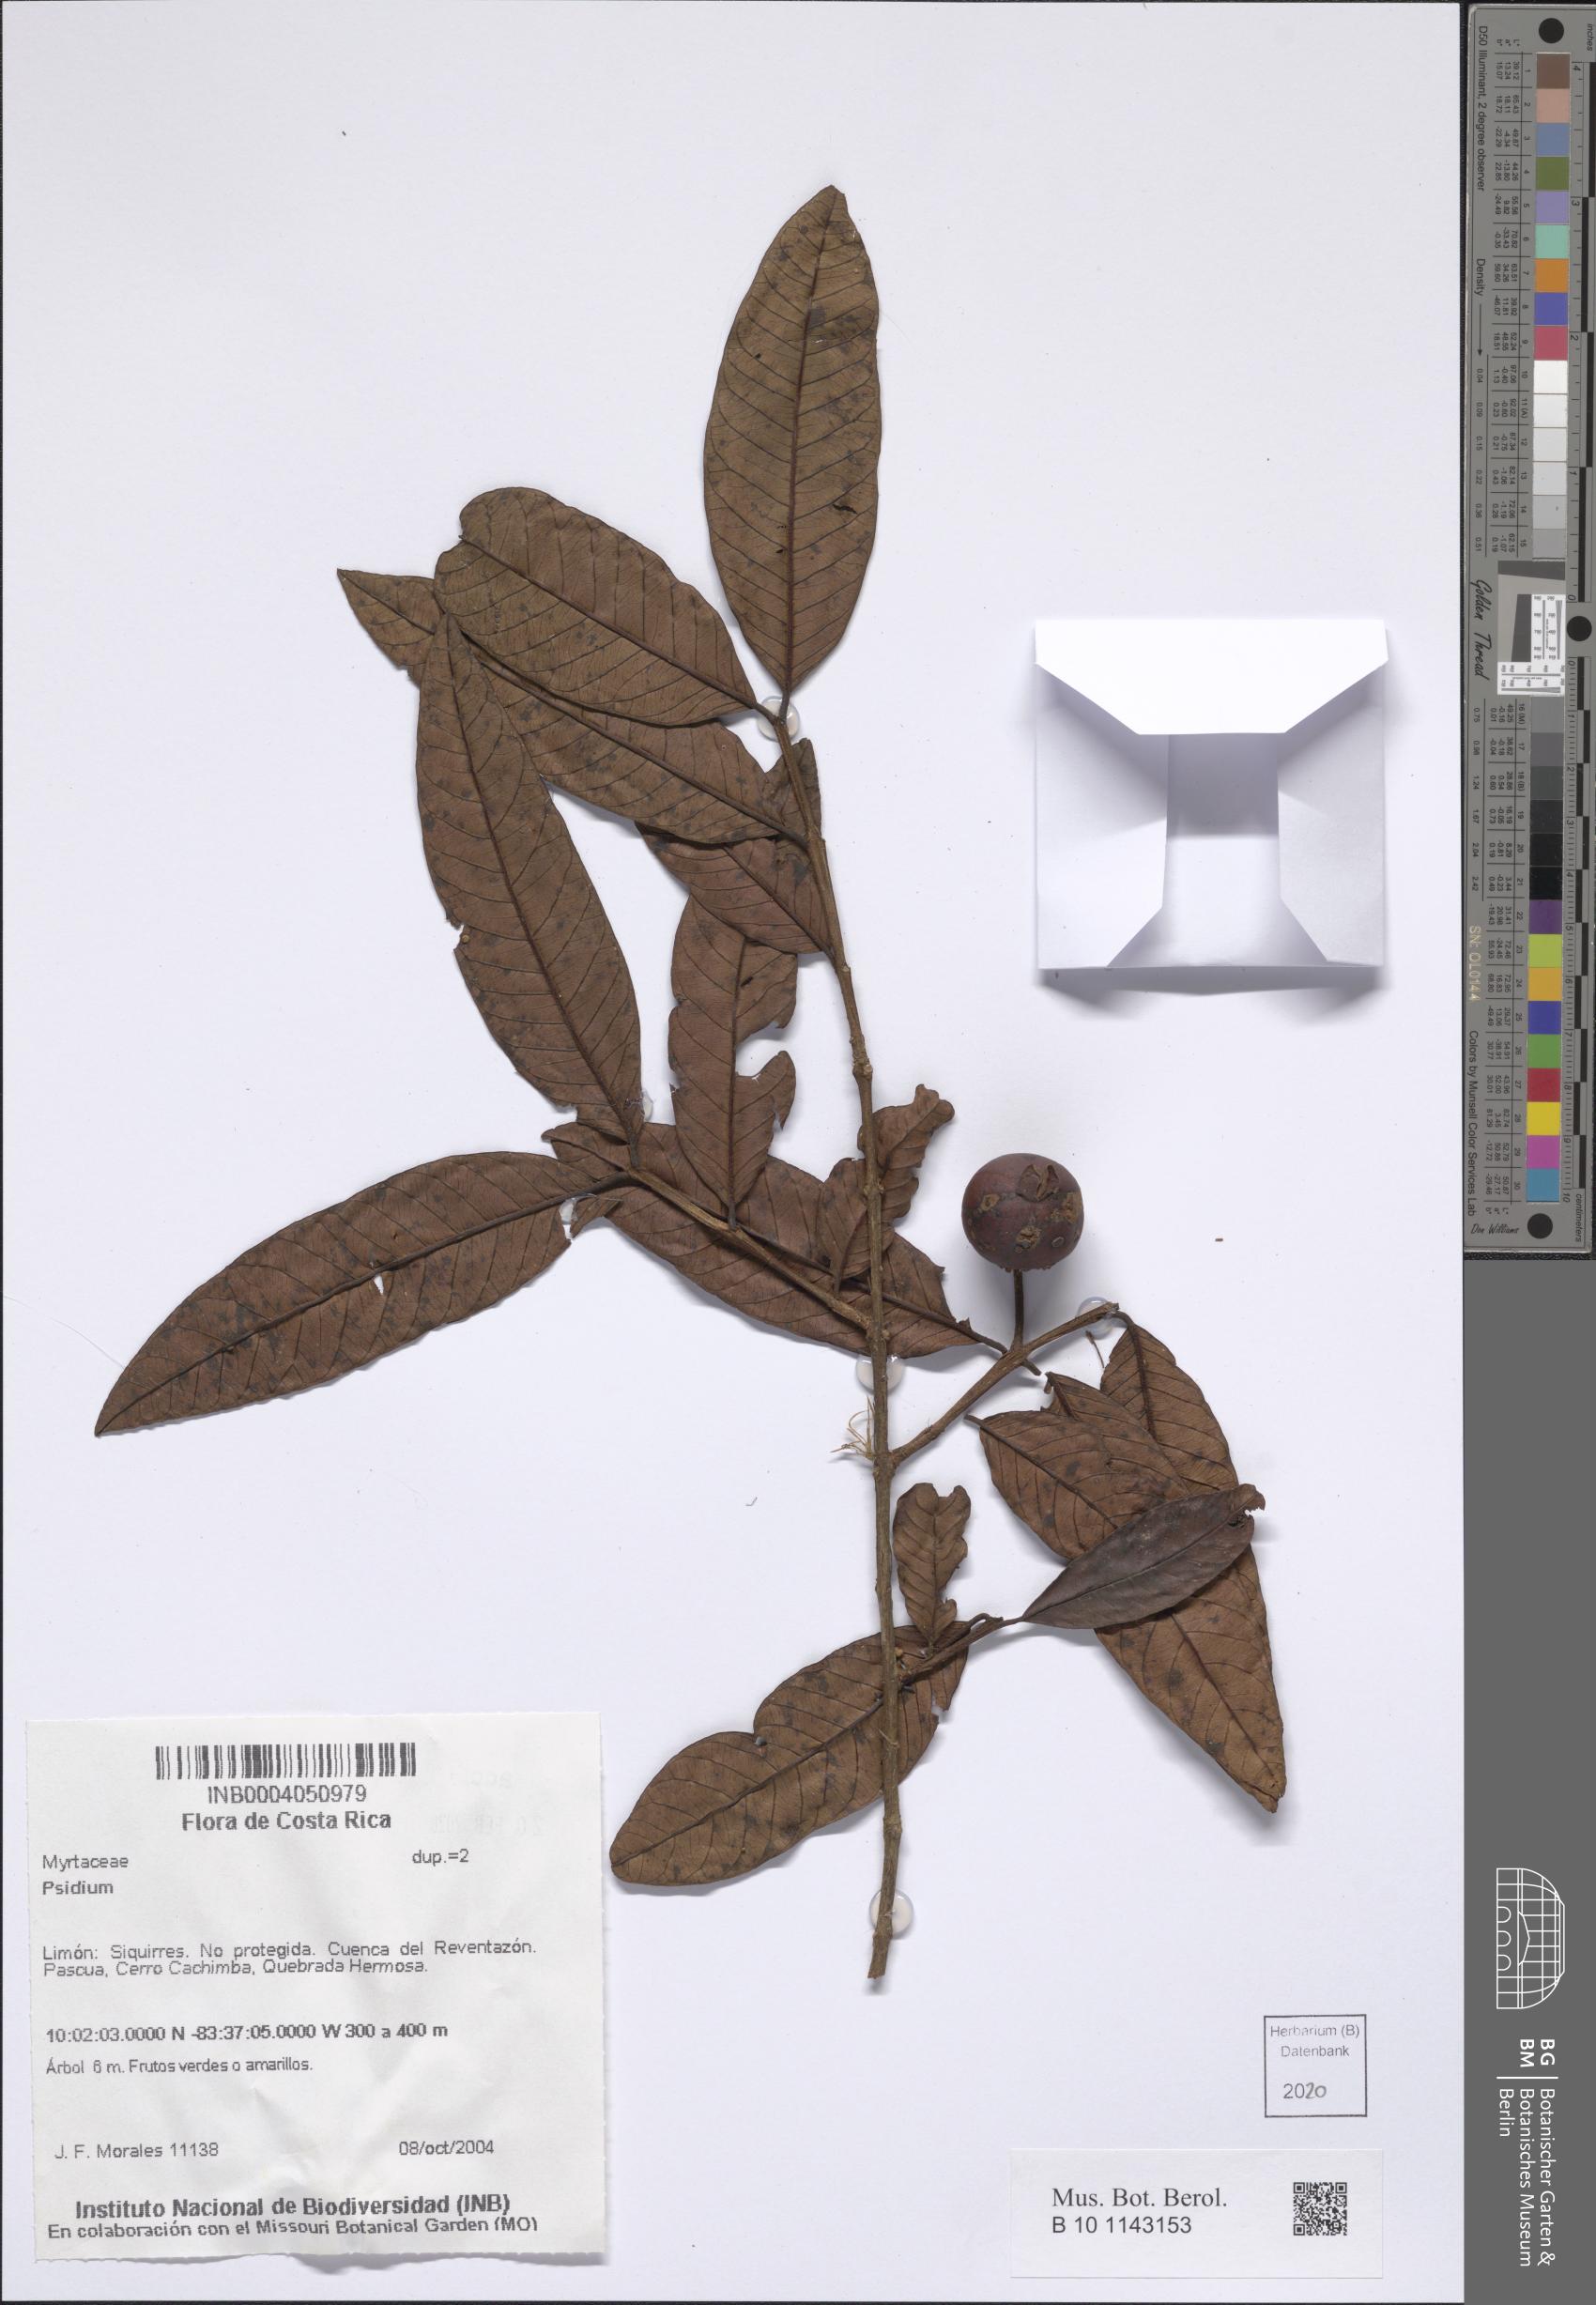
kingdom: Plantae
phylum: Tracheophyta
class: Magnoliopsida
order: Myrtales
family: Myrtaceae
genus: Psidium
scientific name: Psidium
